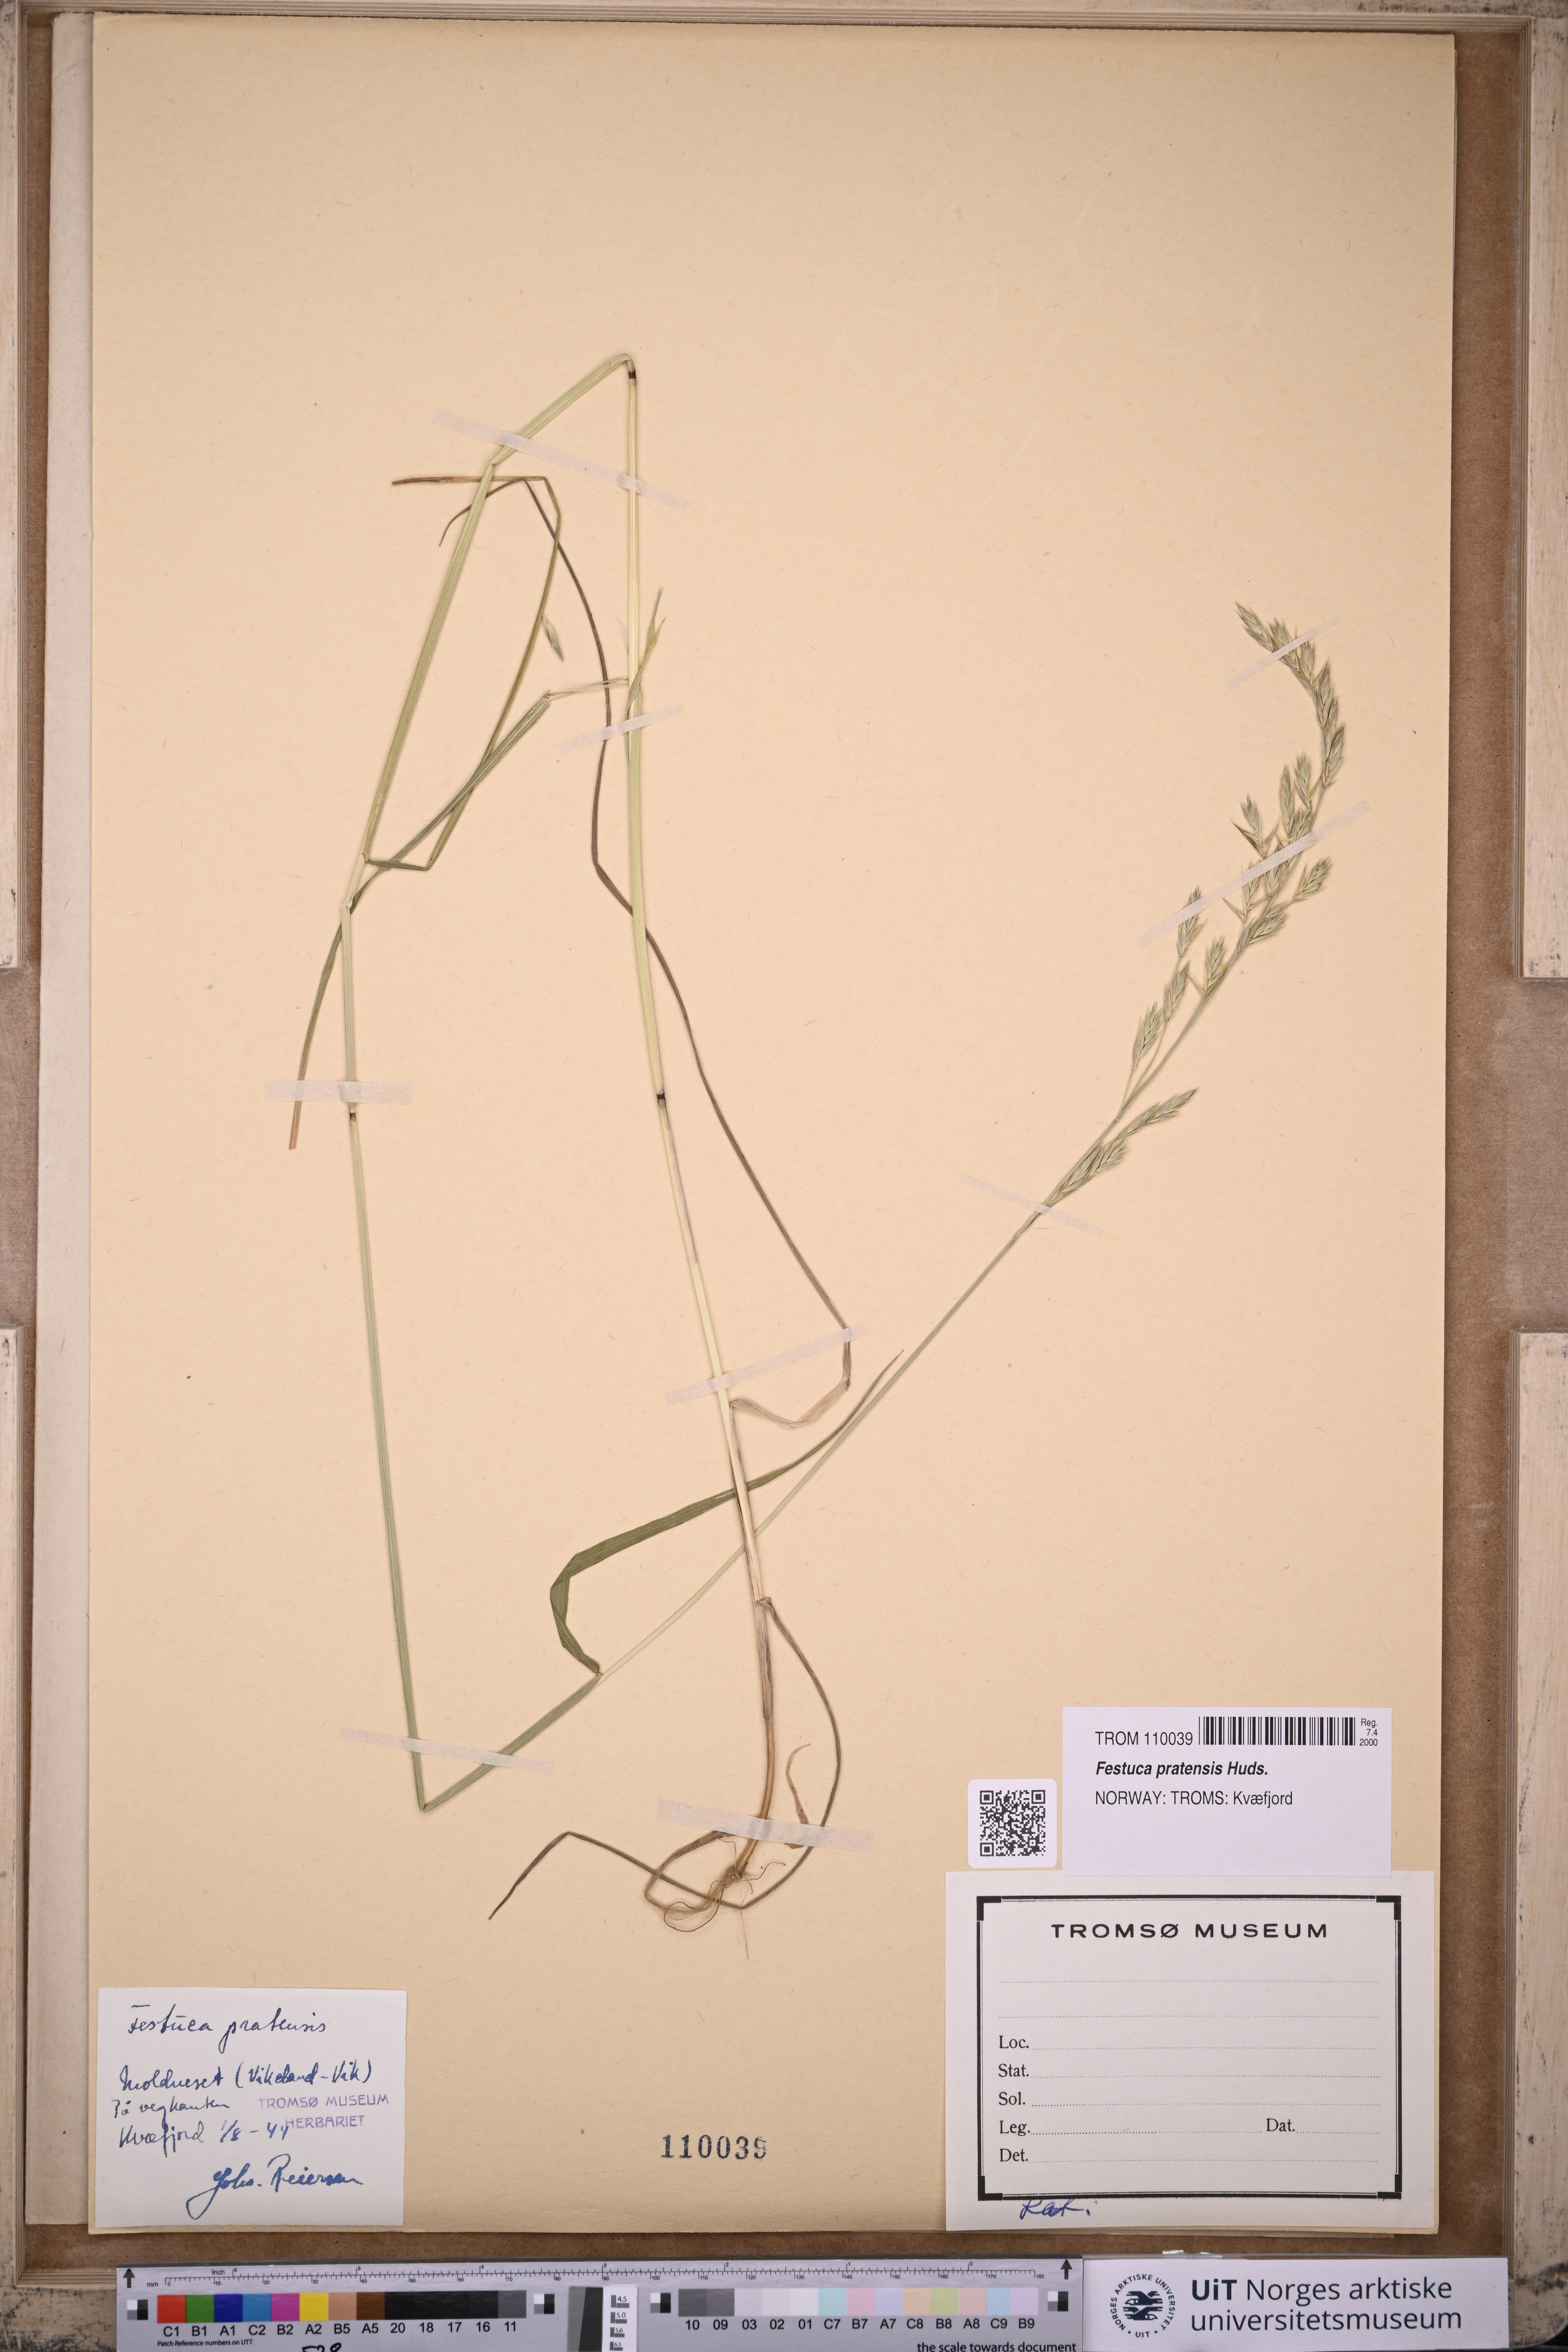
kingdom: Plantae
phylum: Tracheophyta
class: Liliopsida
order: Poales
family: Poaceae
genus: Lolium
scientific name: Lolium pratense
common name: Dover grass
